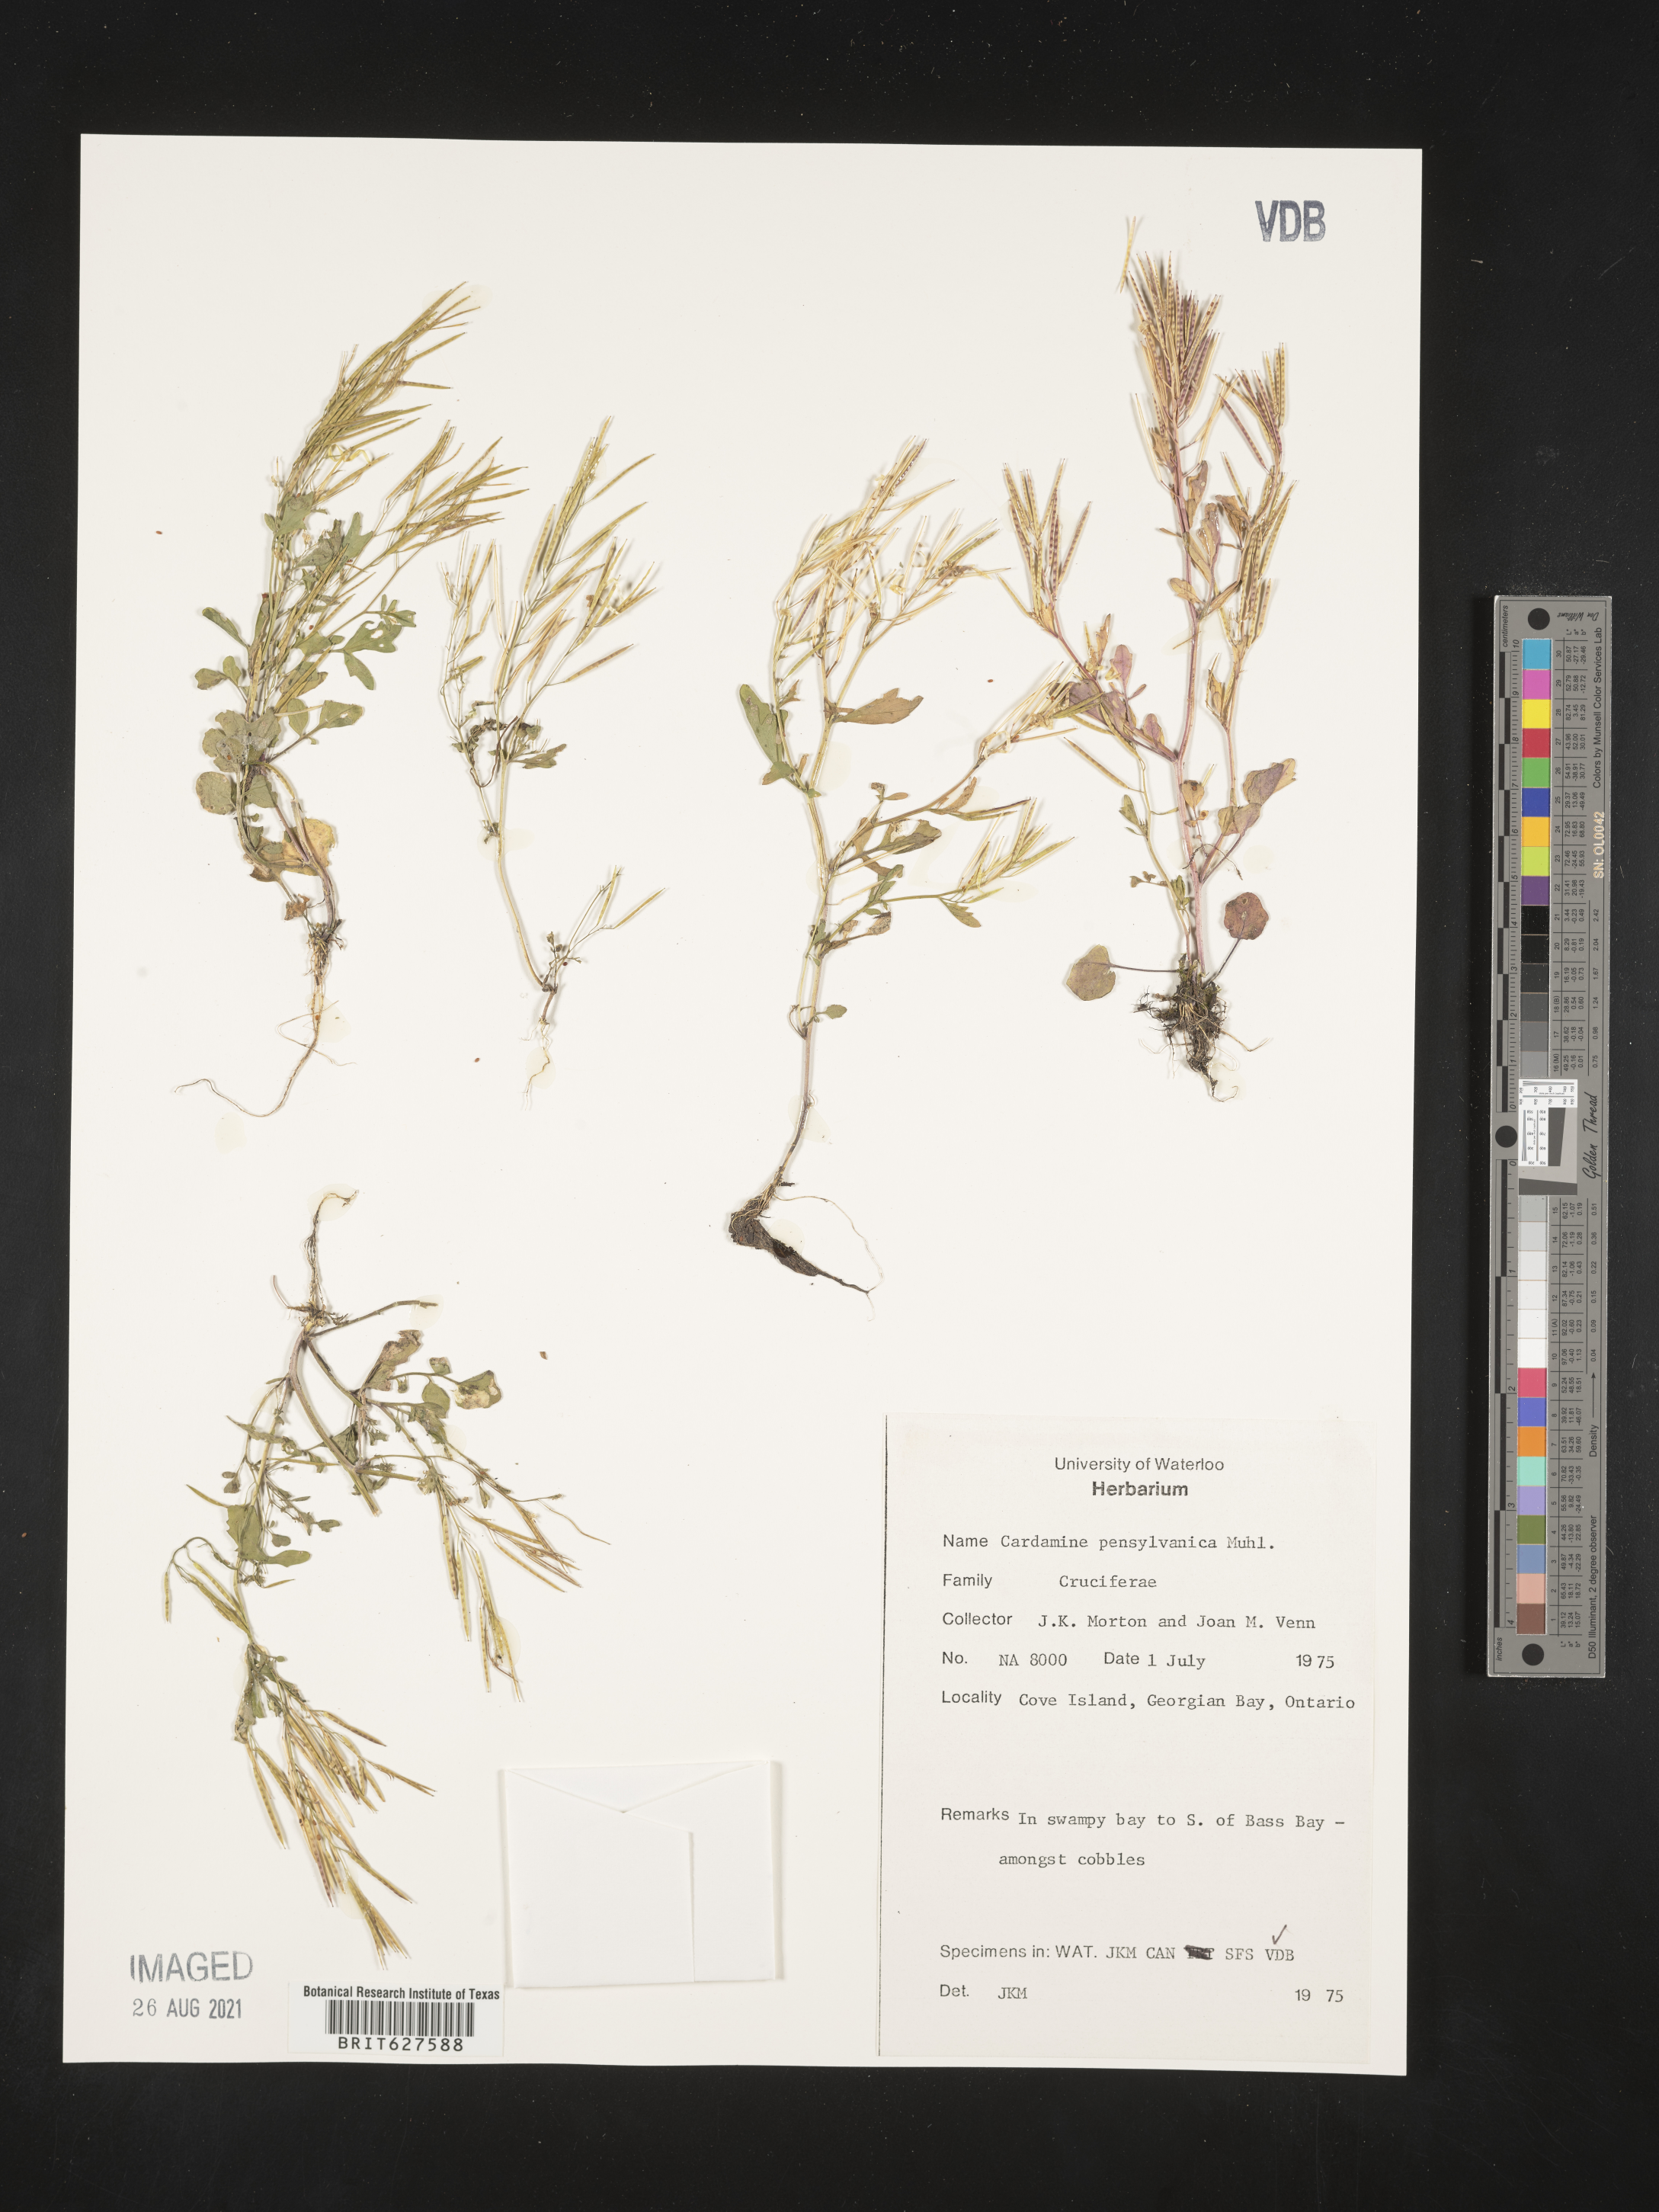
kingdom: Plantae
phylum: Tracheophyta
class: Magnoliopsida
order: Brassicales
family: Brassicaceae
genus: Cardamine
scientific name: Cardamine pensylvanica
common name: Pennsylvania bittercress
